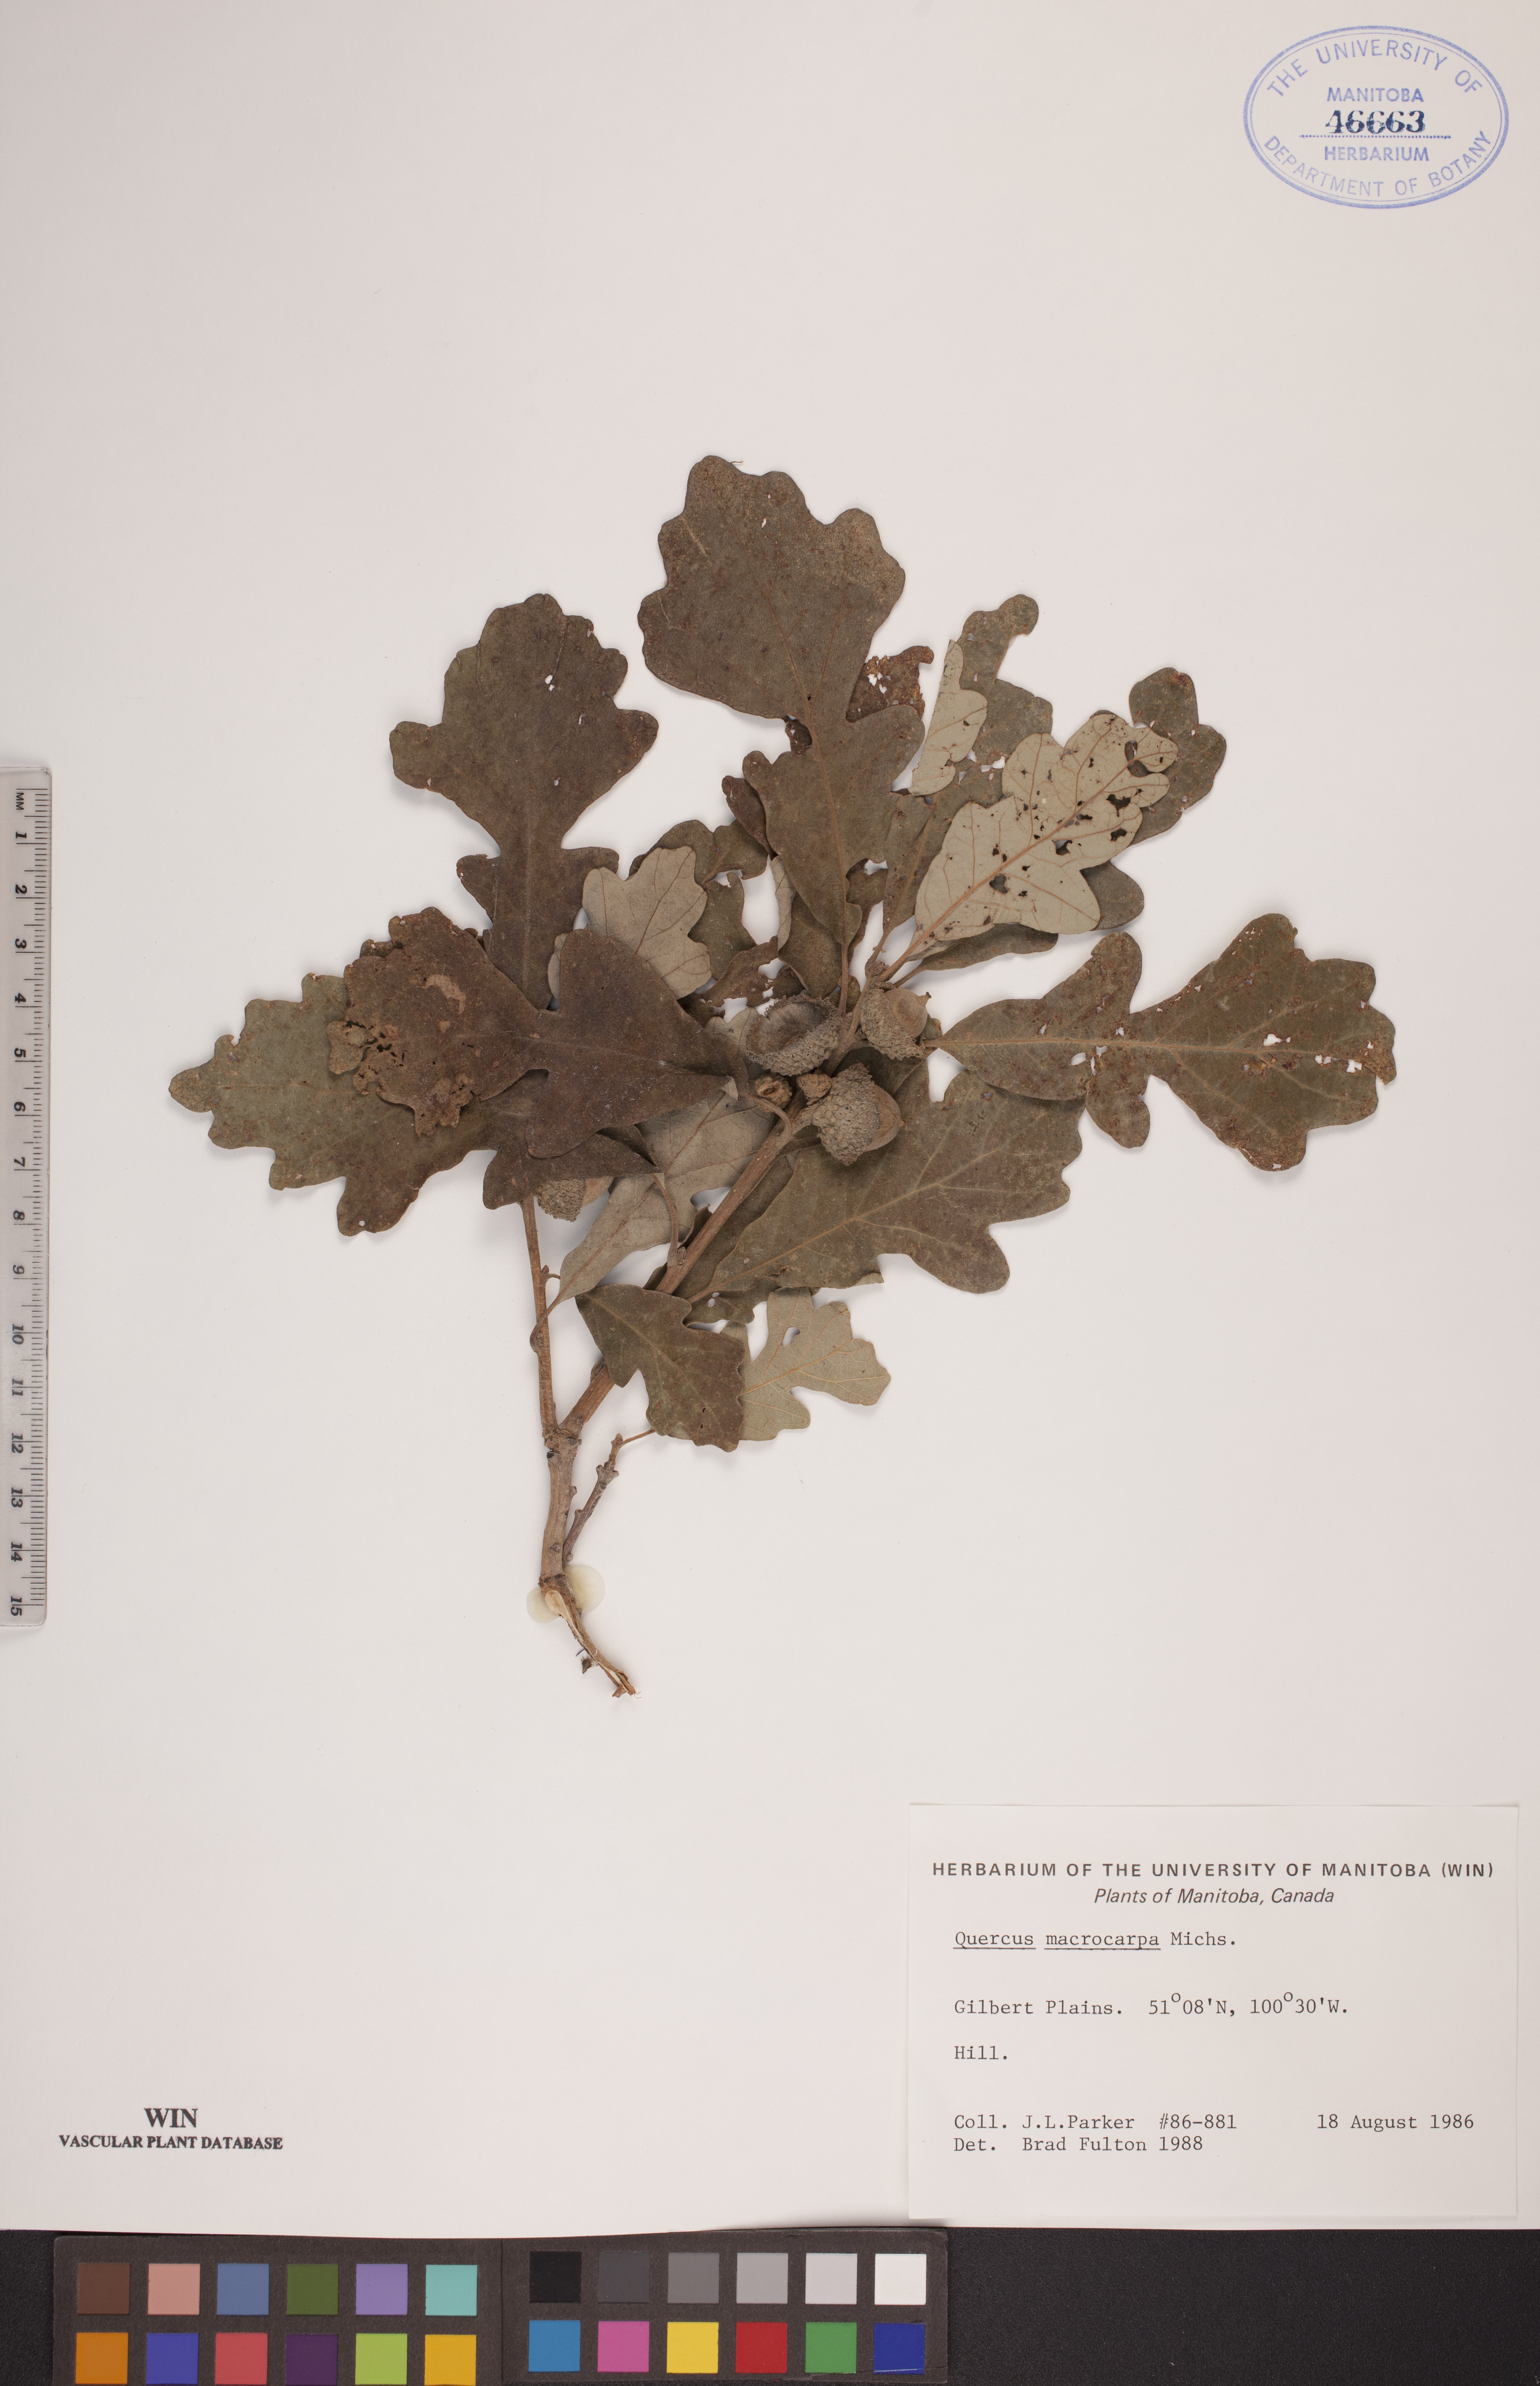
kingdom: Plantae
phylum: Tracheophyta
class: Magnoliopsida
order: Fagales
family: Fagaceae
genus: Quercus
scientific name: Quercus macrocarpa
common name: Bur oak
